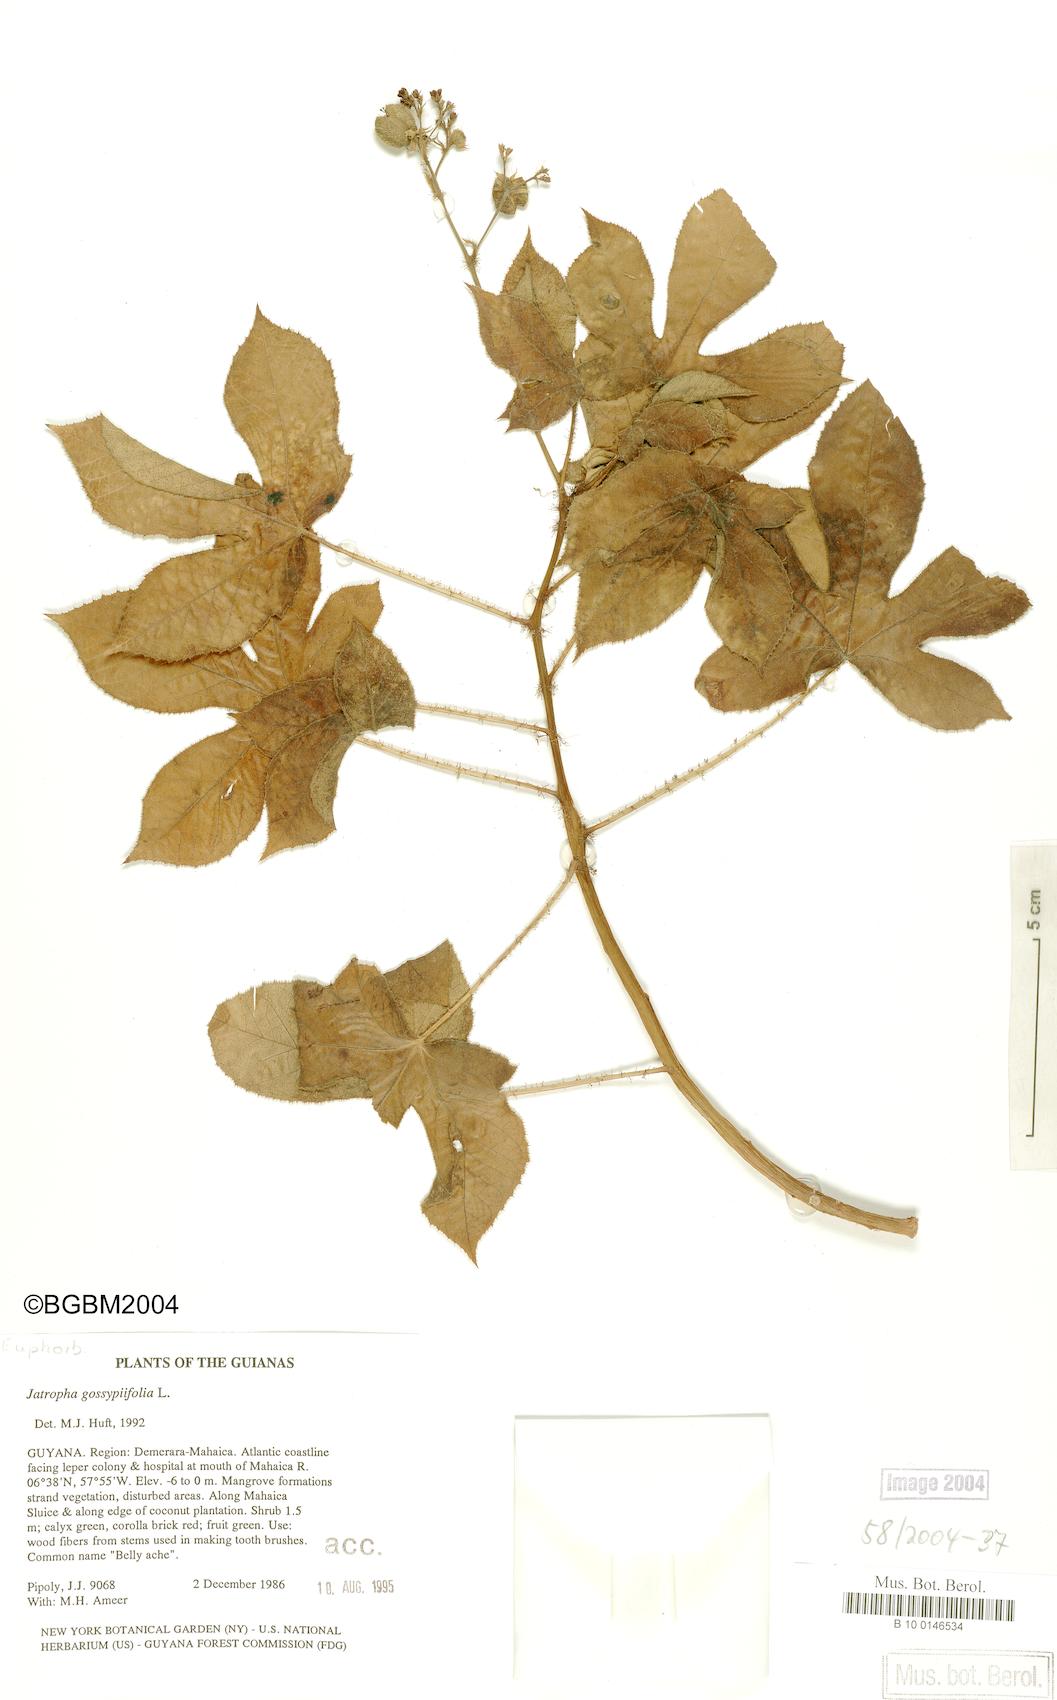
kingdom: Plantae
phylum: Tracheophyta
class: Magnoliopsida
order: Malpighiales
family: Euphorbiaceae
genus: Jatropha
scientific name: Jatropha gossypiifolia
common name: Bellyache bush
